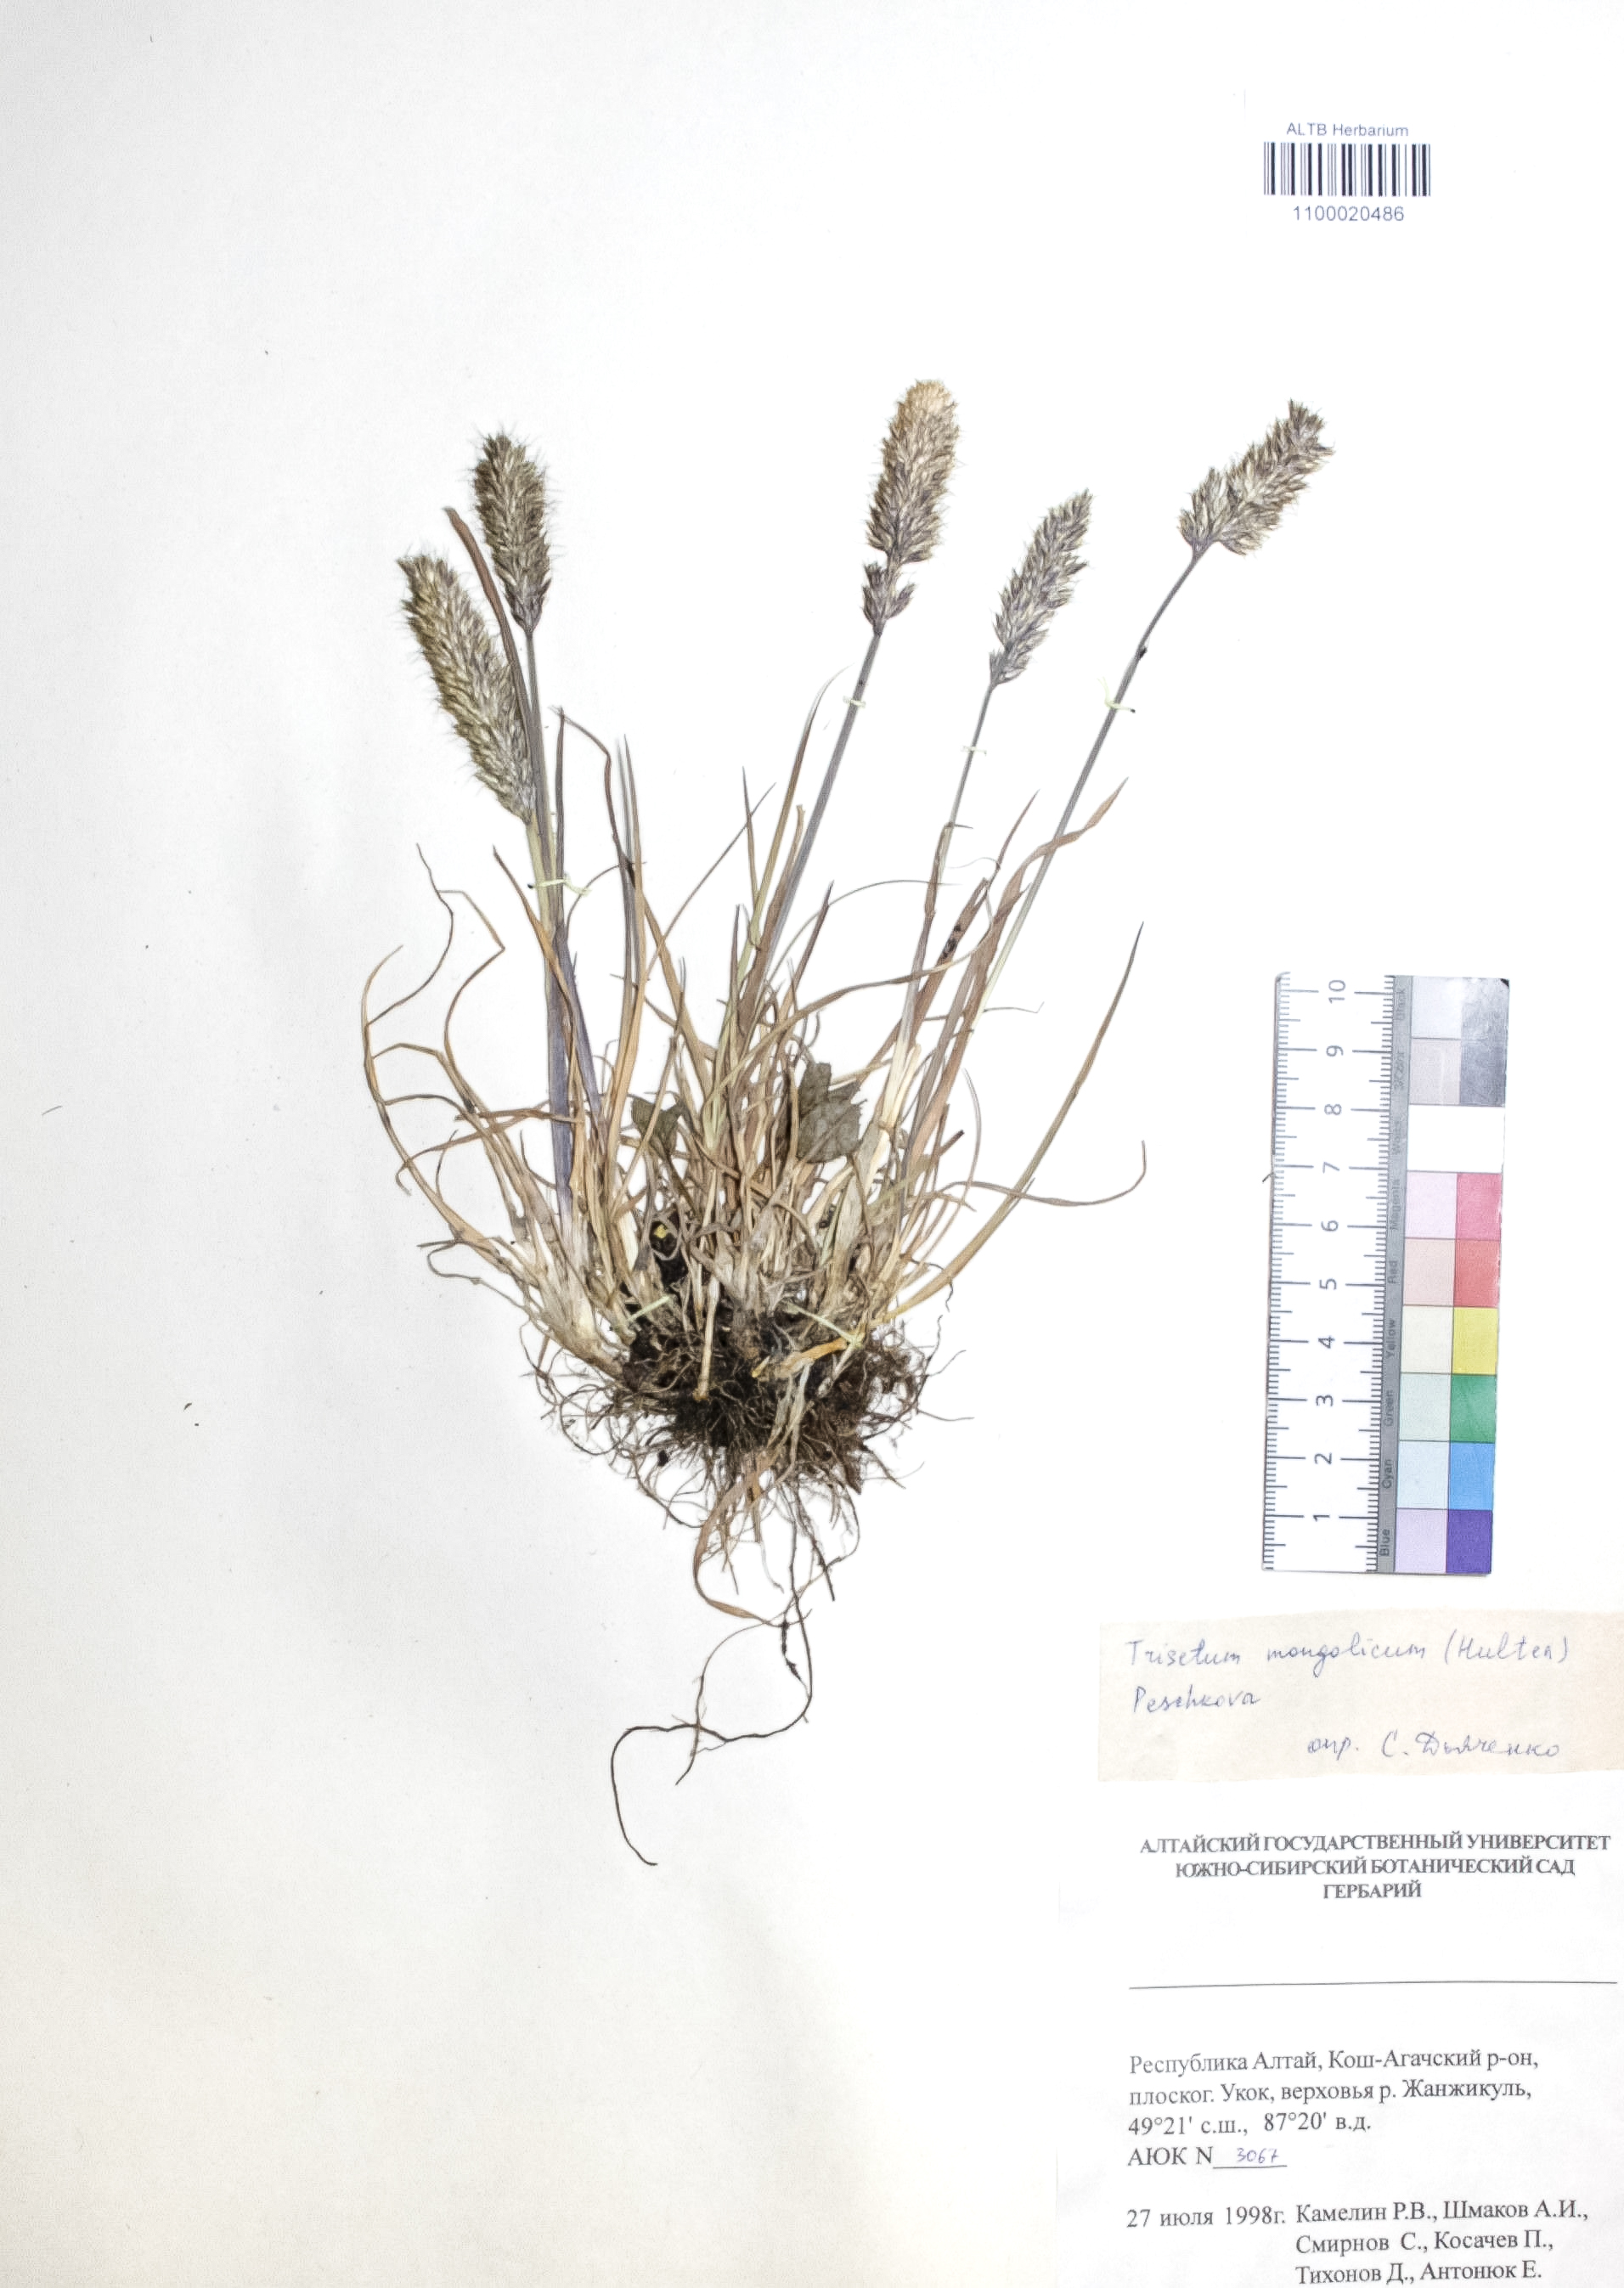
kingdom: Plantae
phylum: Tracheophyta
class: Liliopsida
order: Poales
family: Poaceae
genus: Koeleria
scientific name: Koeleria spicata
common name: Mountain trisetum
